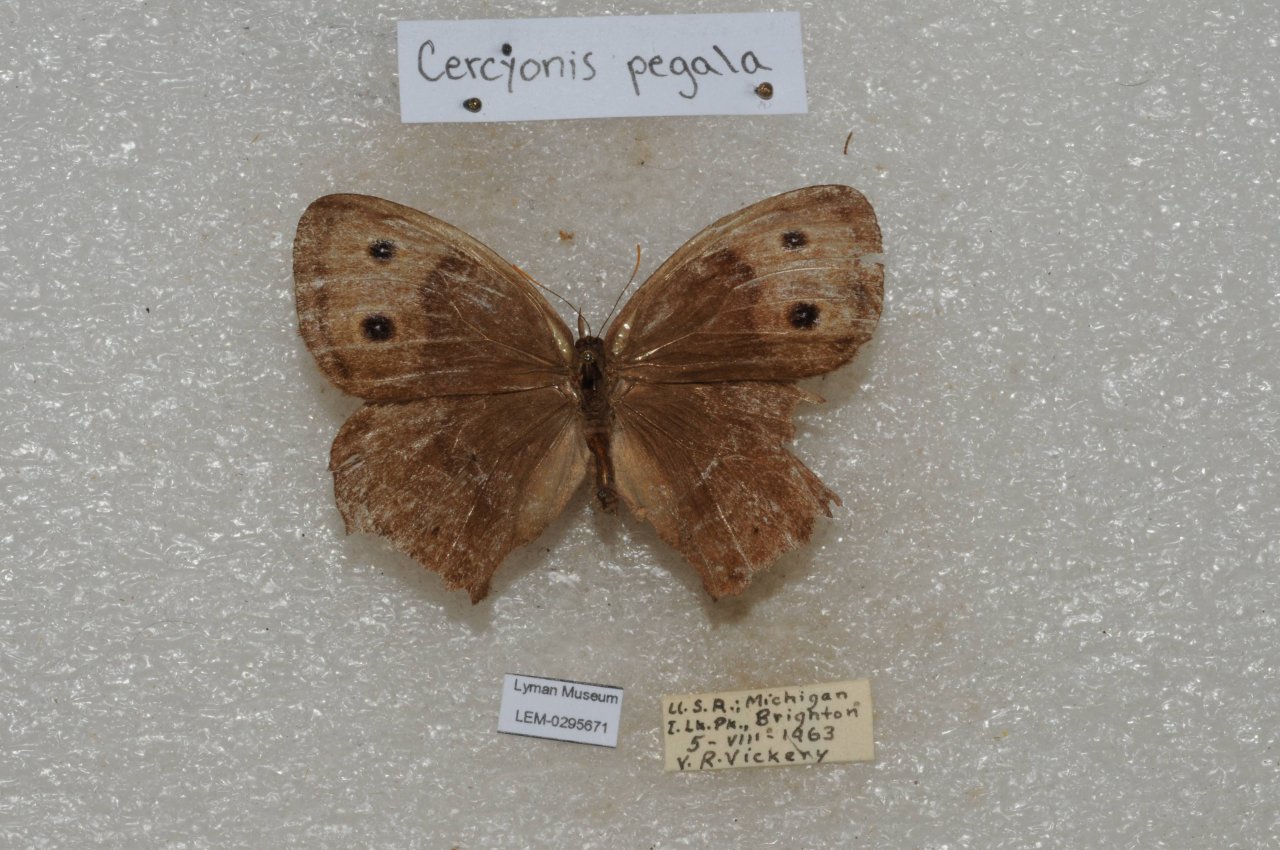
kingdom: Animalia
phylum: Arthropoda
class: Insecta
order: Lepidoptera
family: Nymphalidae
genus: Cercyonis
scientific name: Cercyonis pegala
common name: Common Wood-Nymph
